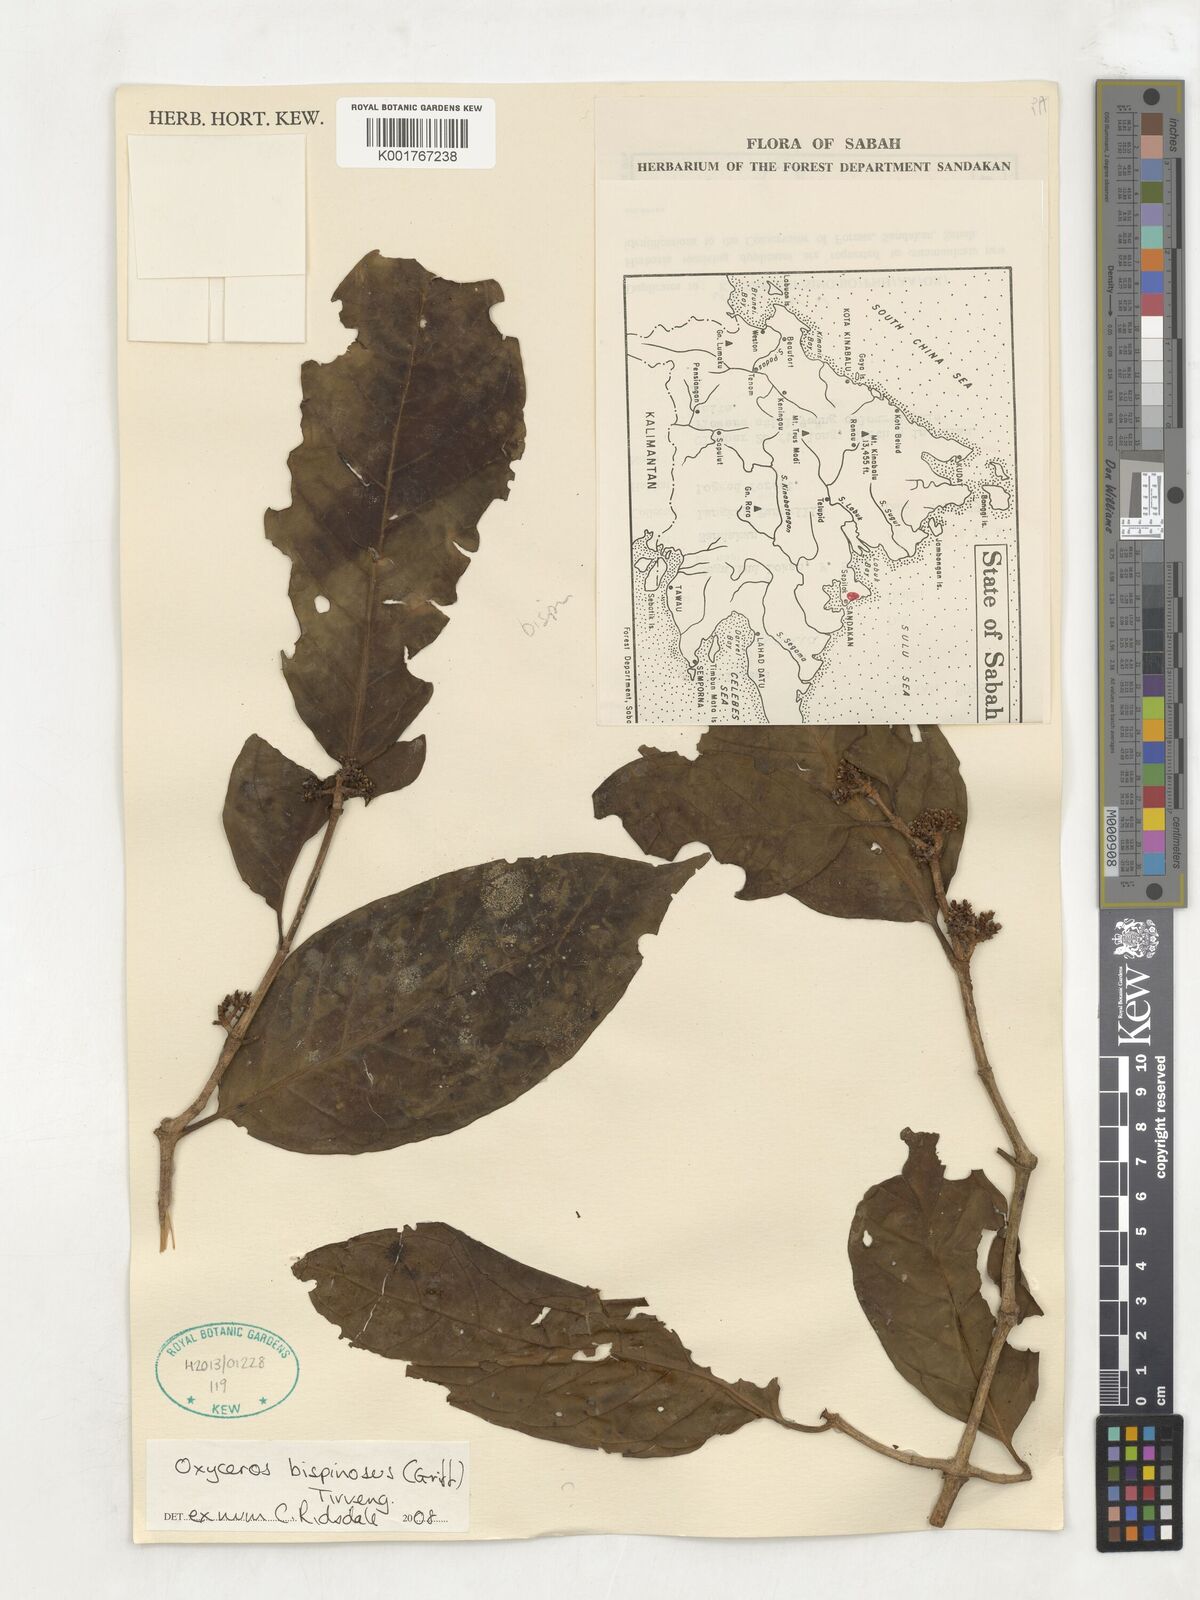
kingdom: Plantae
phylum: Tracheophyta
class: Magnoliopsida
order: Gentianales
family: Rubiaceae
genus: Oxyceros
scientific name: Oxyceros bispinosus
